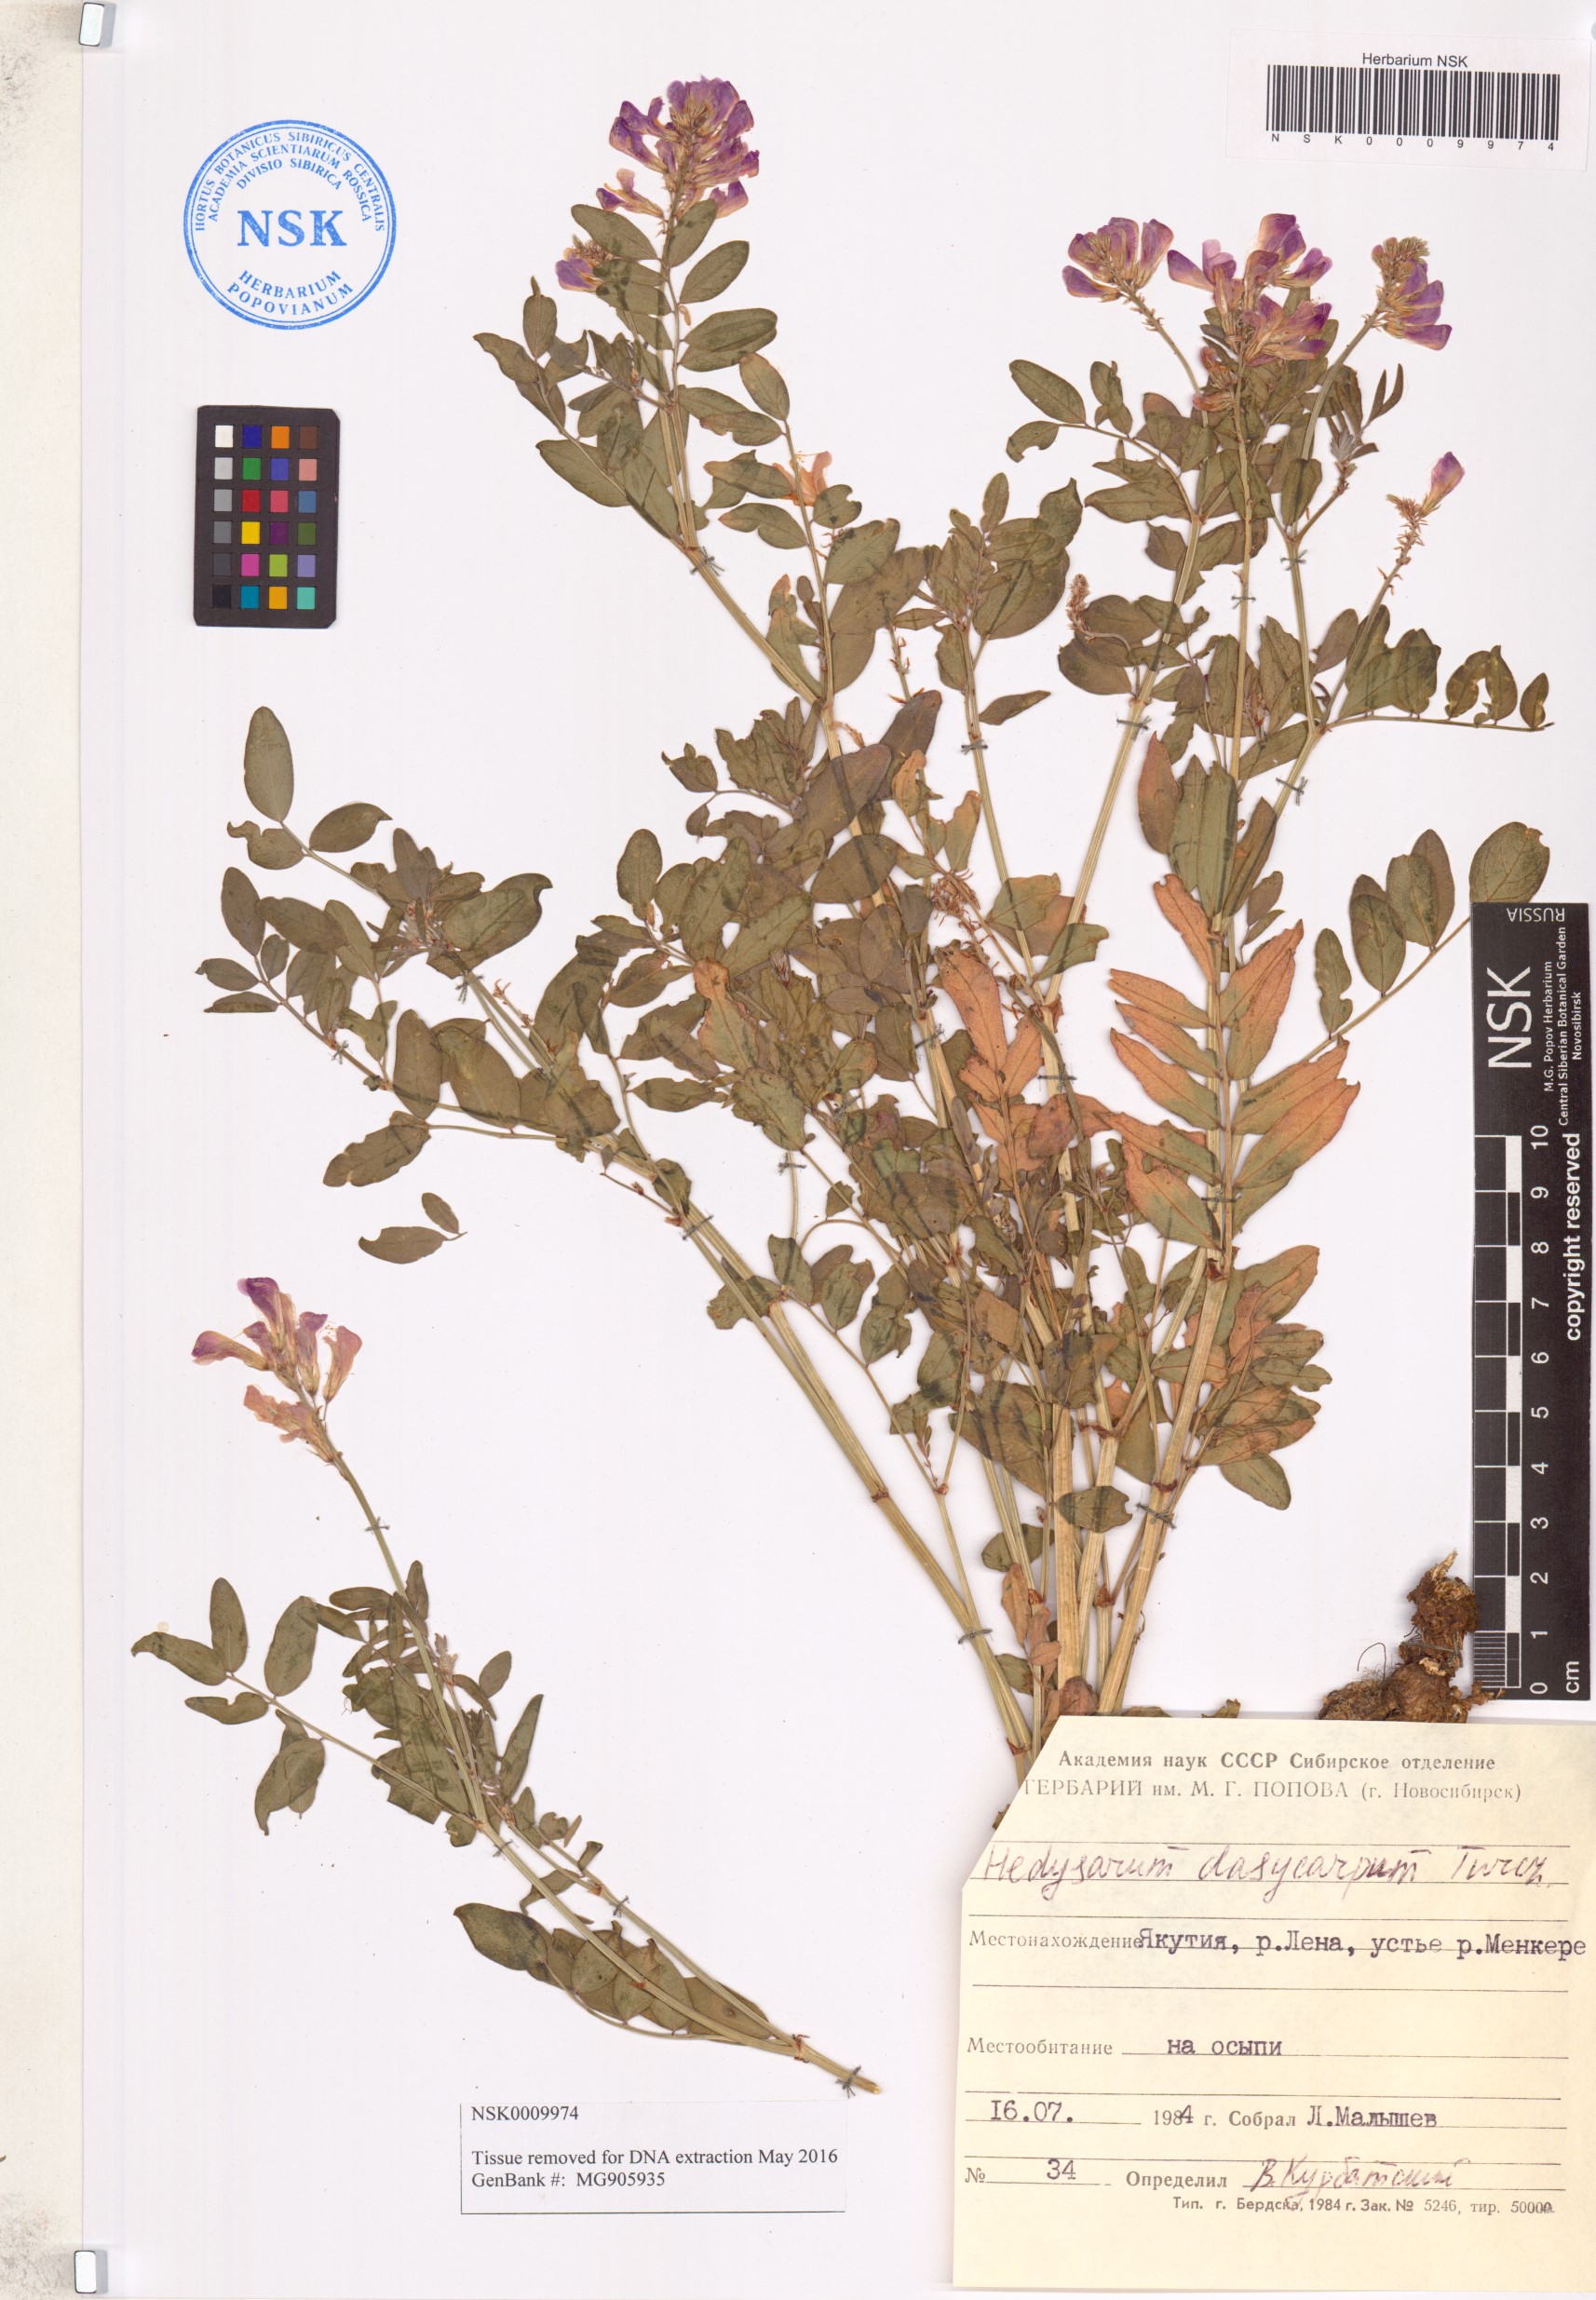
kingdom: Plantae
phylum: Tracheophyta
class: Magnoliopsida
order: Fabales
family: Fabaceae
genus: Hedysarum
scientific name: Hedysarum dasycarpum
